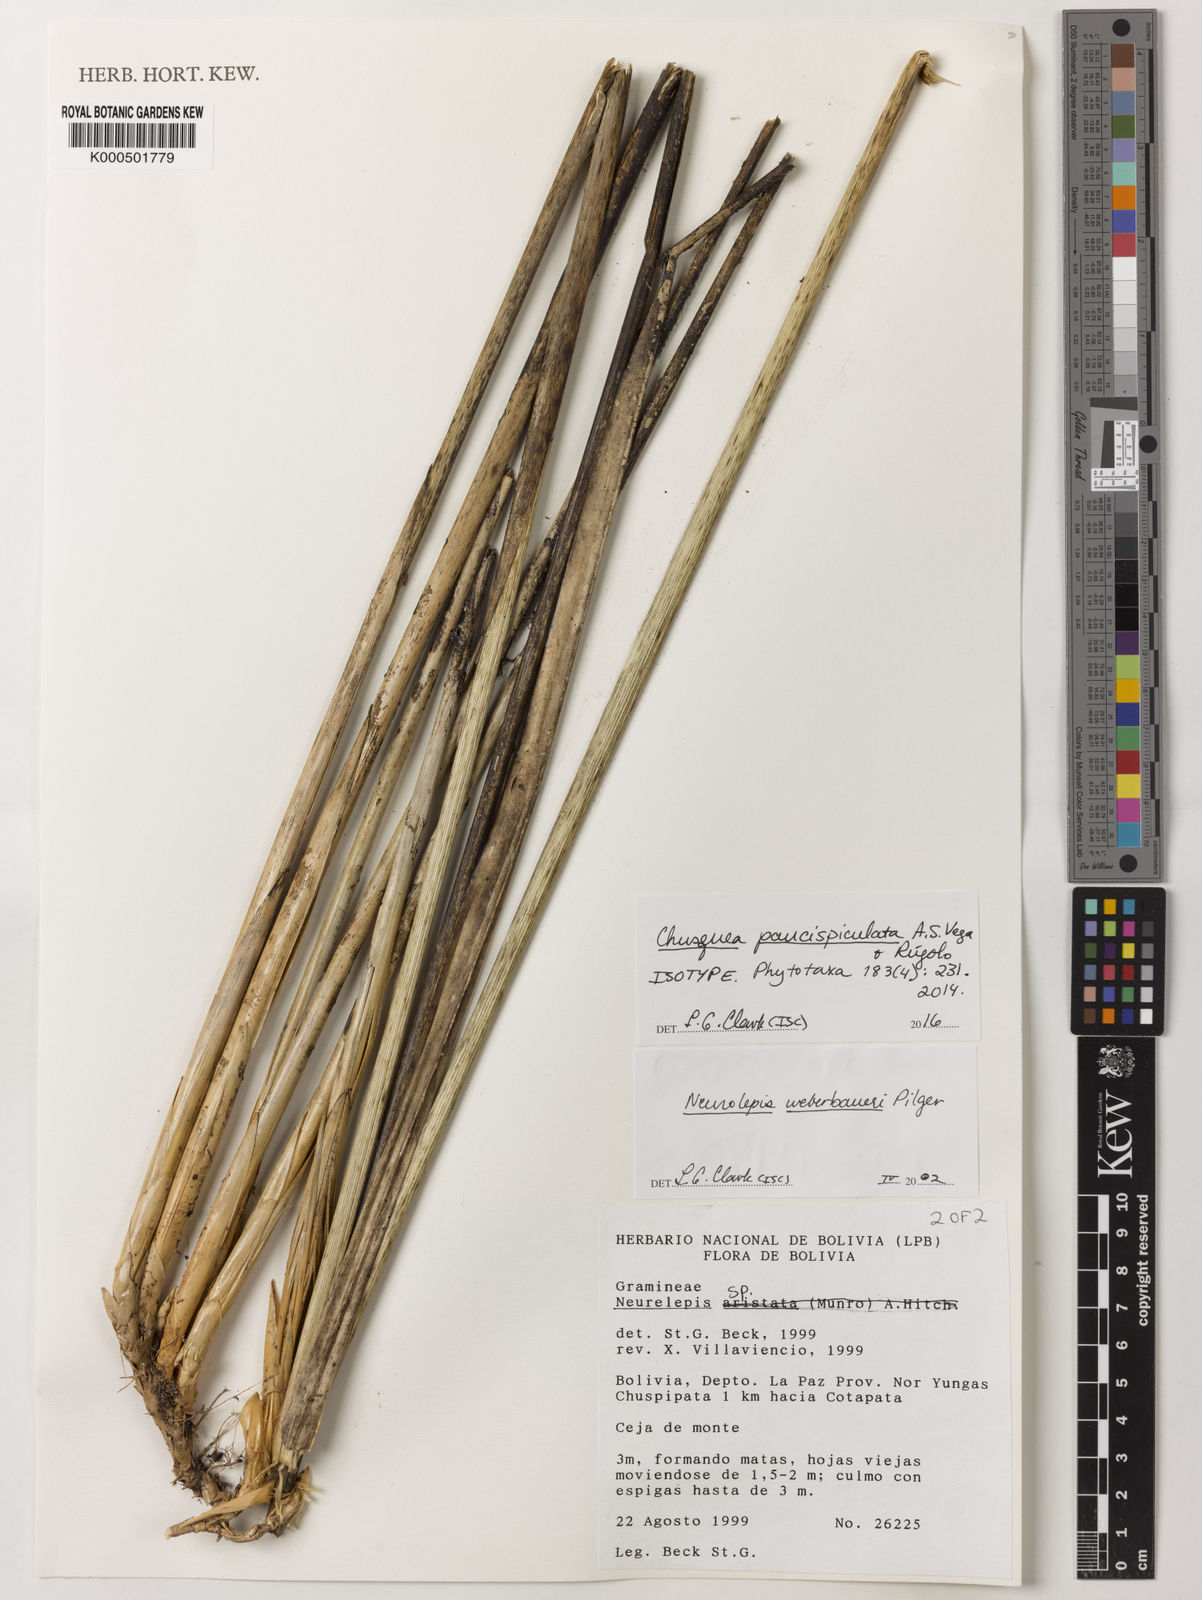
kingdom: Plantae
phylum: Tracheophyta
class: Liliopsida
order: Poales
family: Poaceae
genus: Chusquea
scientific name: Chusquea
